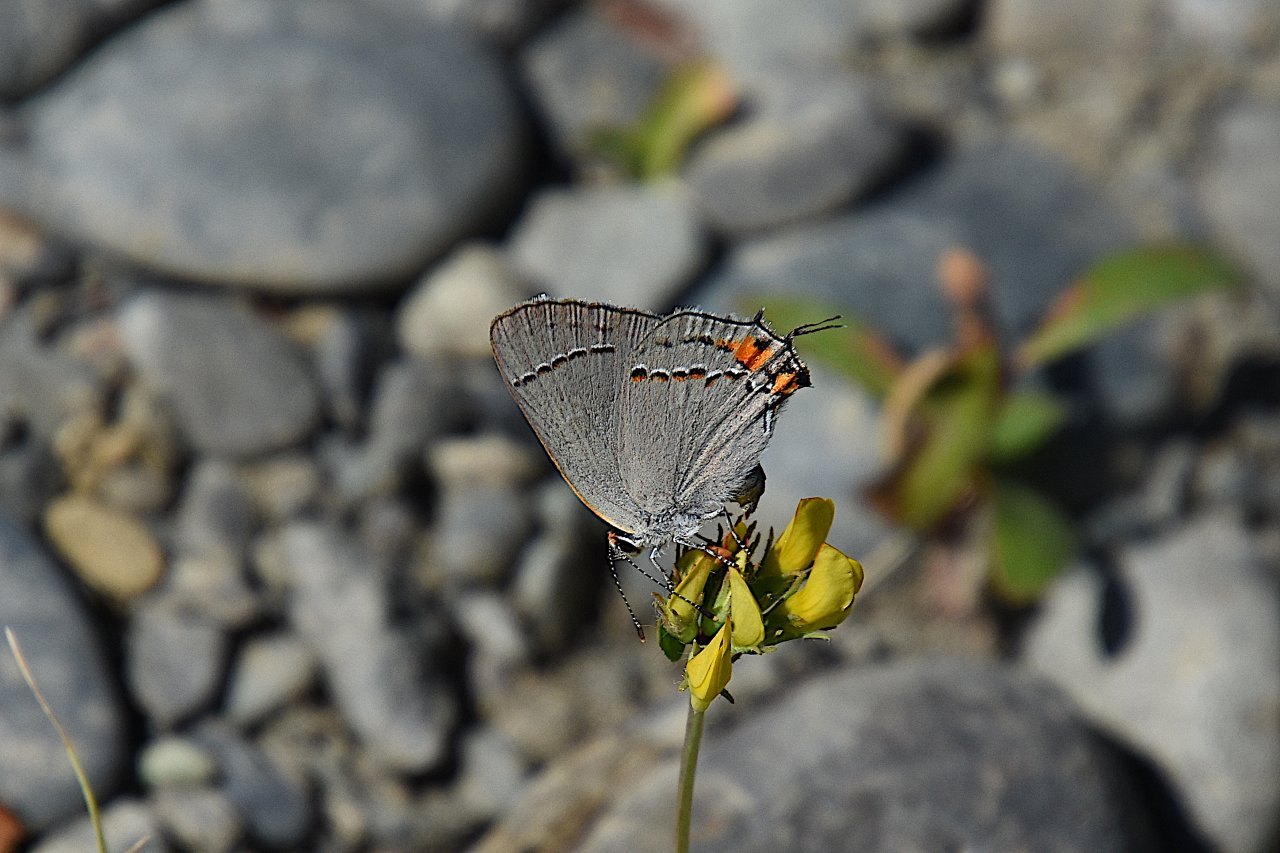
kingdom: Animalia
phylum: Arthropoda
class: Insecta
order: Lepidoptera
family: Lycaenidae
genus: Strymon
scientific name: Strymon melinus
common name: Gray Hairstreak
